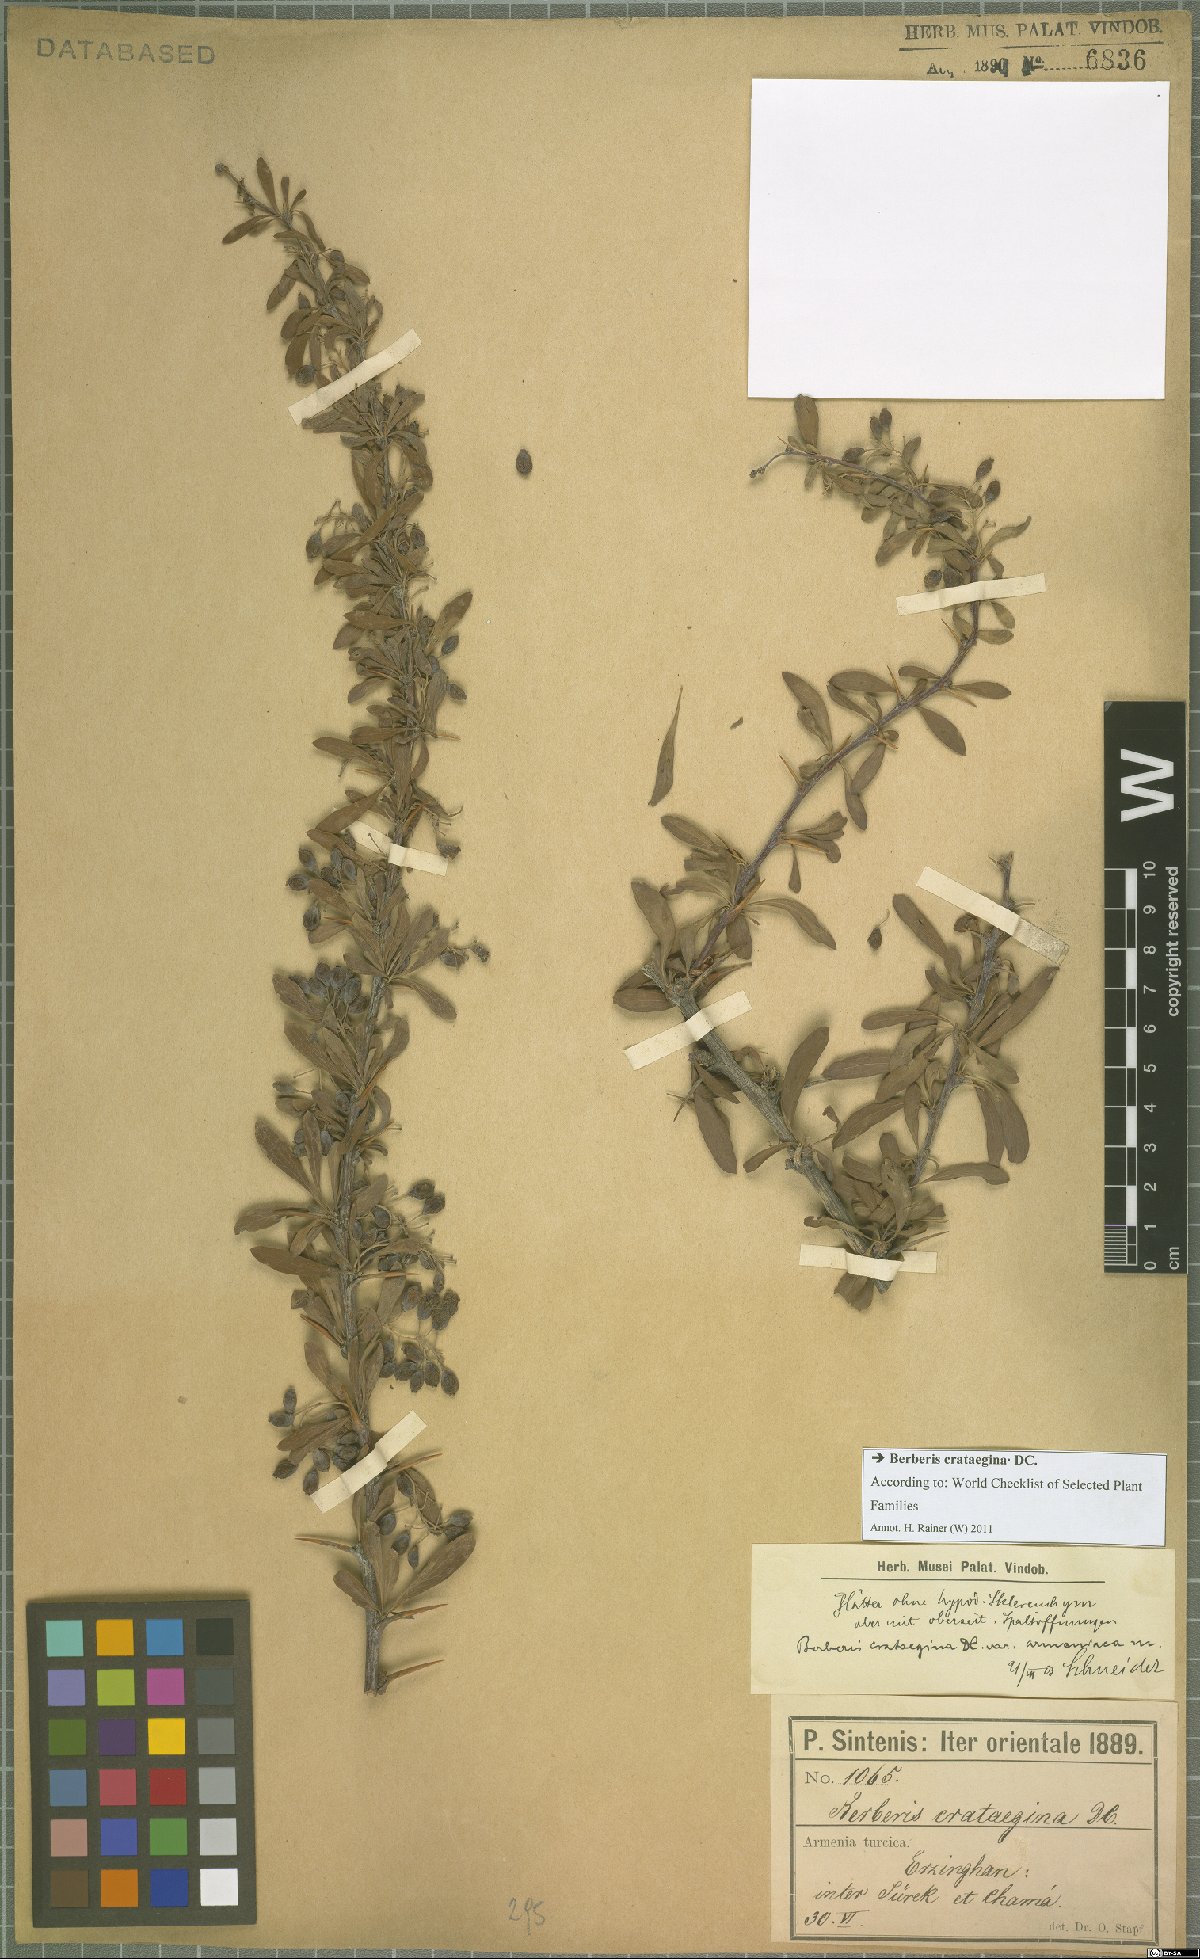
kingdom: Plantae
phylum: Tracheophyta
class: Magnoliopsida
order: Ranunculales
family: Berberidaceae
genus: Berberis
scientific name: Berberis crataegina
